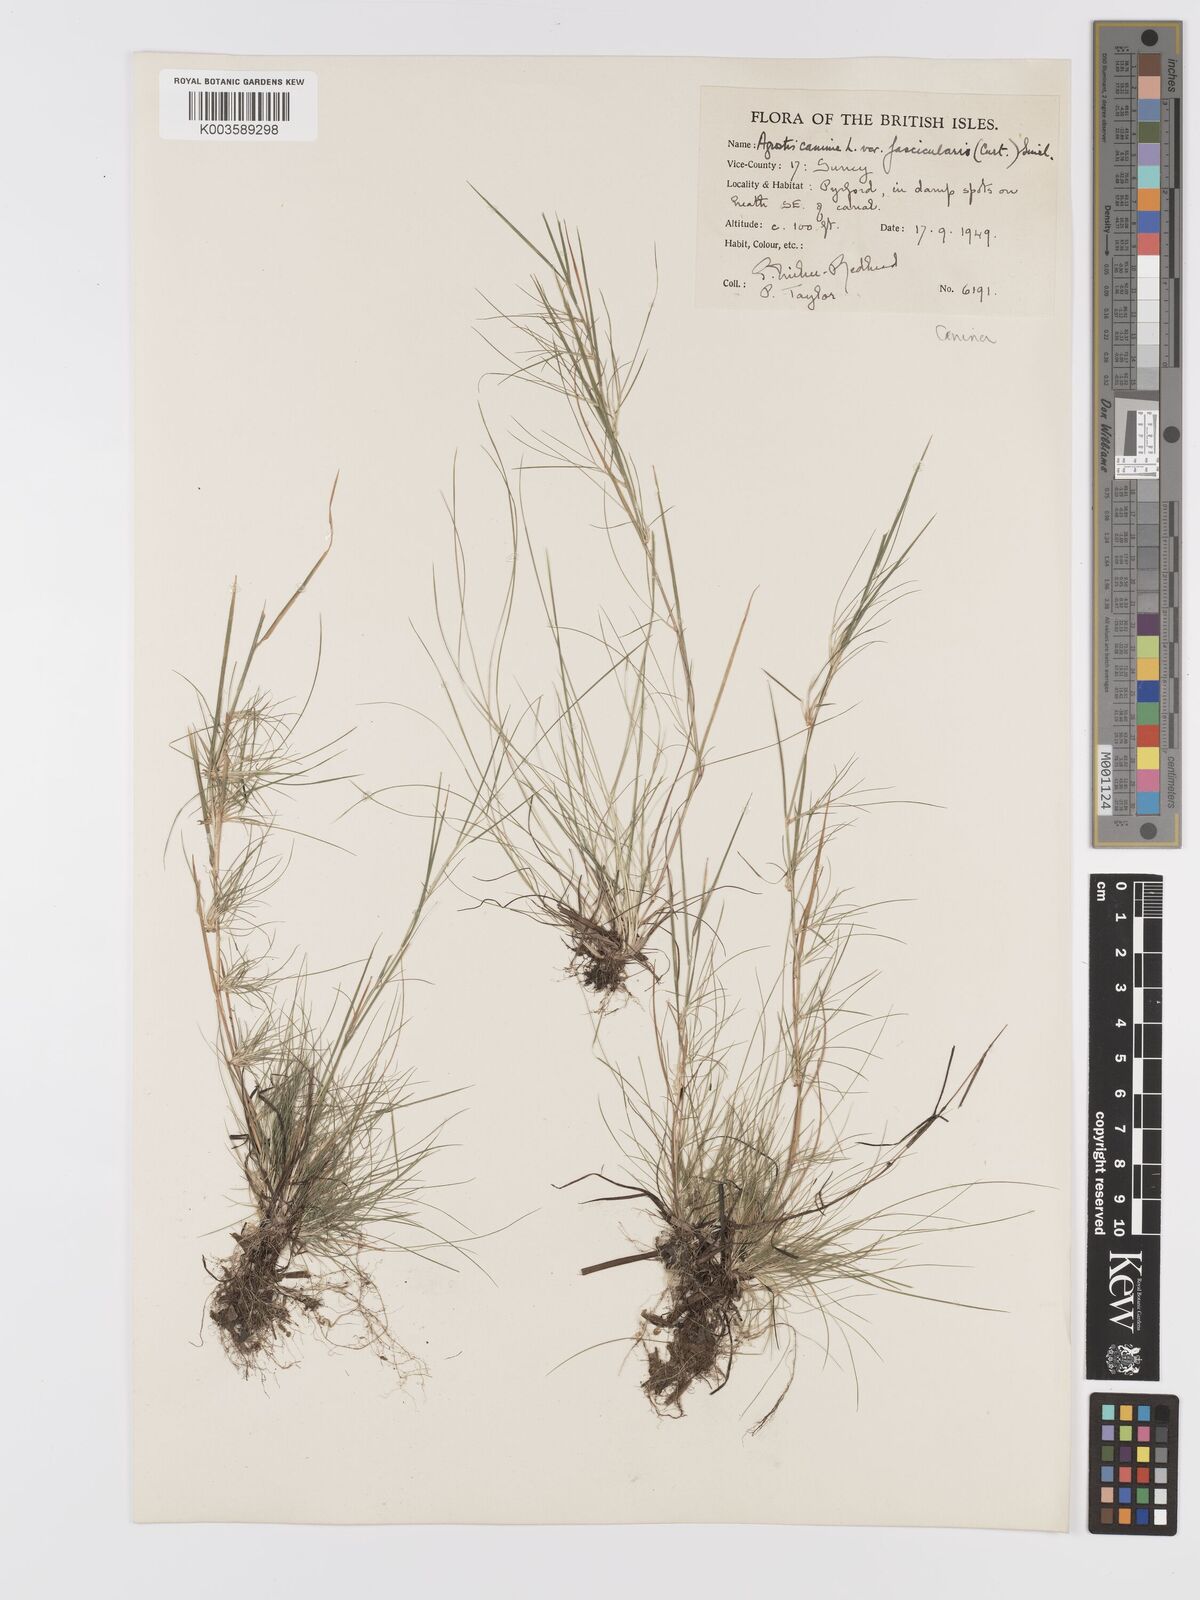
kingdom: Plantae
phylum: Tracheophyta
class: Liliopsida
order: Poales
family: Poaceae
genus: Agrostis
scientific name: Agrostis canina
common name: Velvet bent
